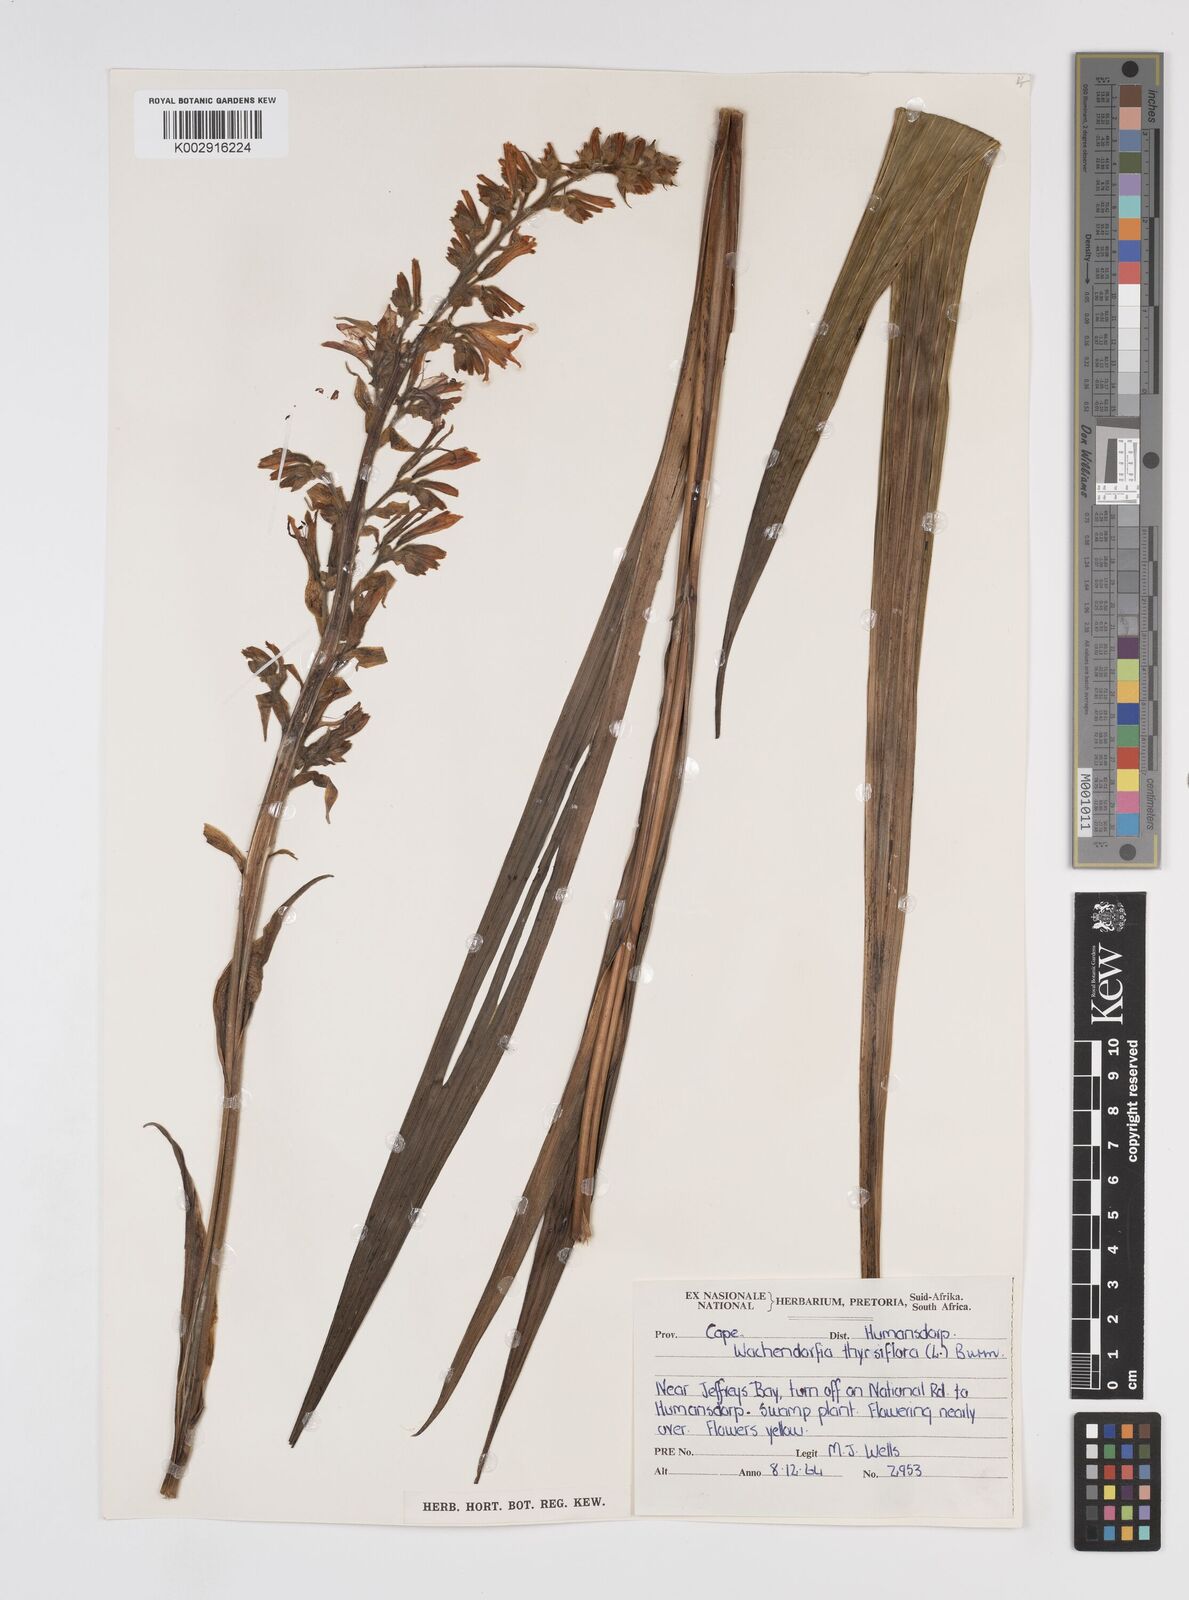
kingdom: Plantae
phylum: Tracheophyta
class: Liliopsida
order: Commelinales
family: Haemodoraceae
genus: Wachendorfia
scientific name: Wachendorfia thyrsiflora
